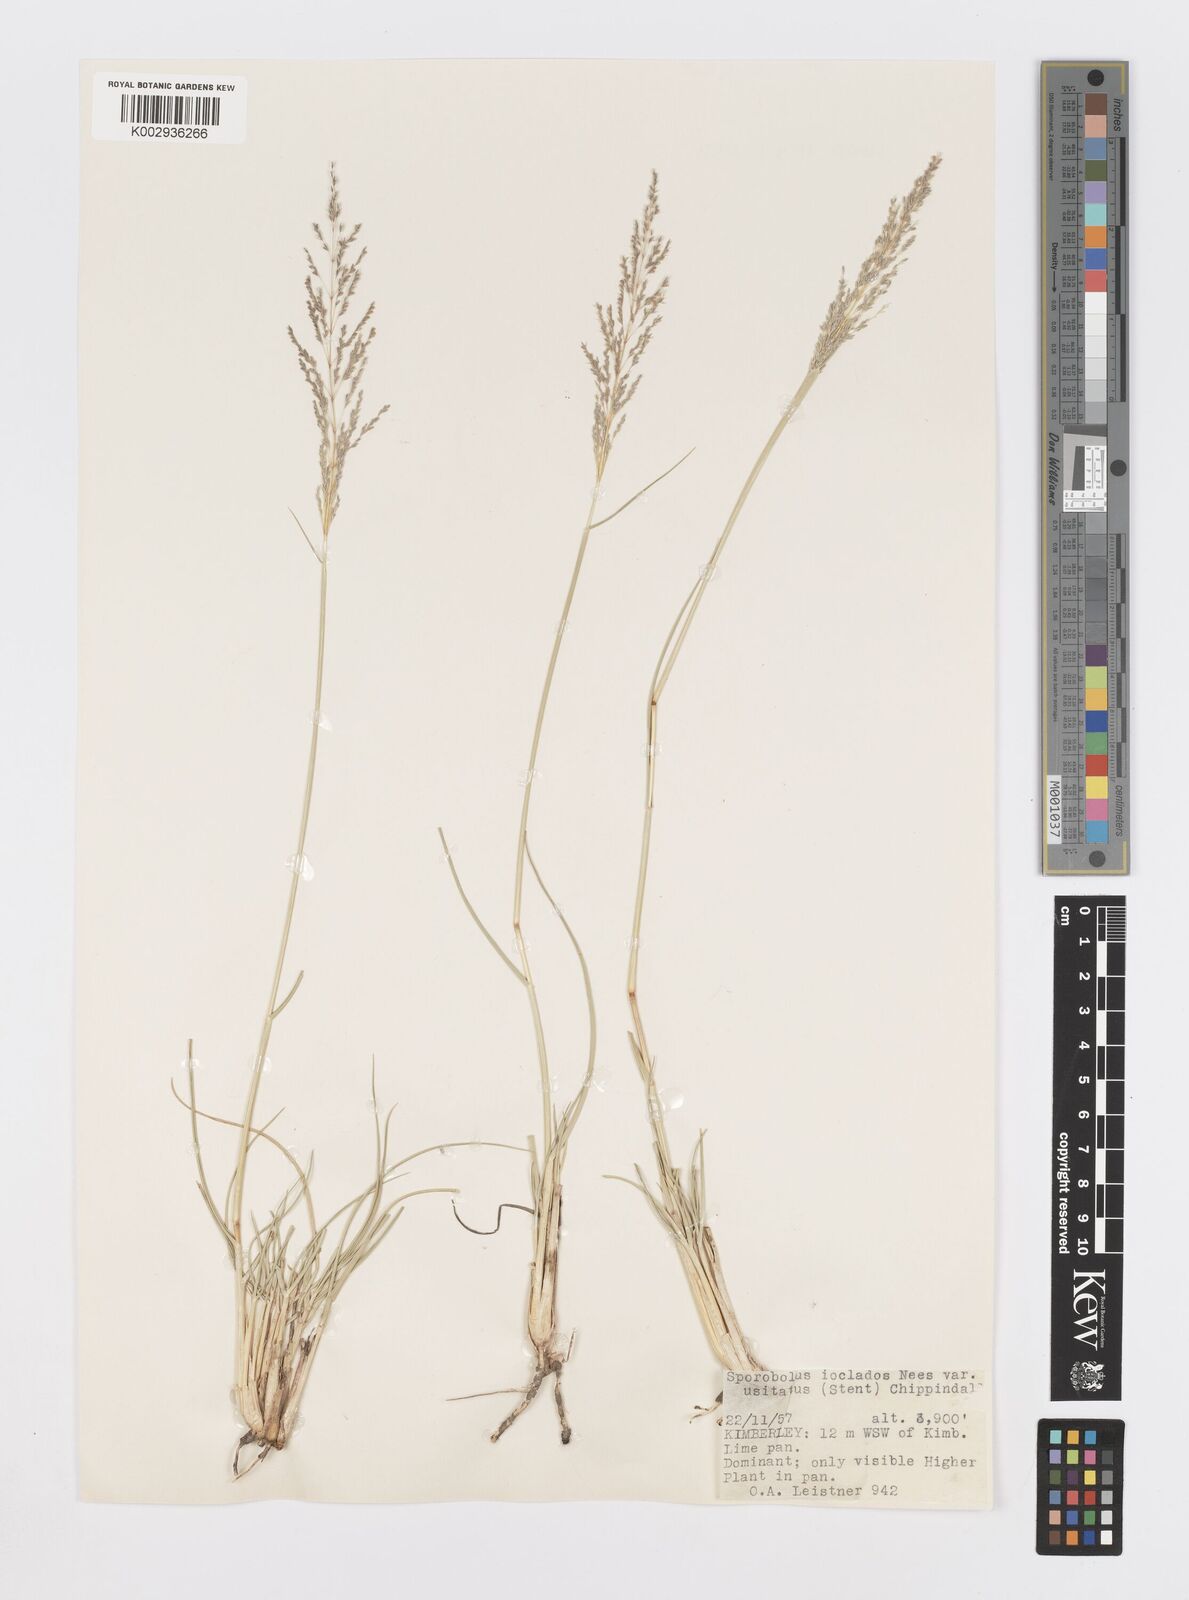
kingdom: Plantae
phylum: Tracheophyta
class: Liliopsida
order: Poales
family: Poaceae
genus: Sporobolus
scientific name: Sporobolus ioclados
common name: Pan dropseed
